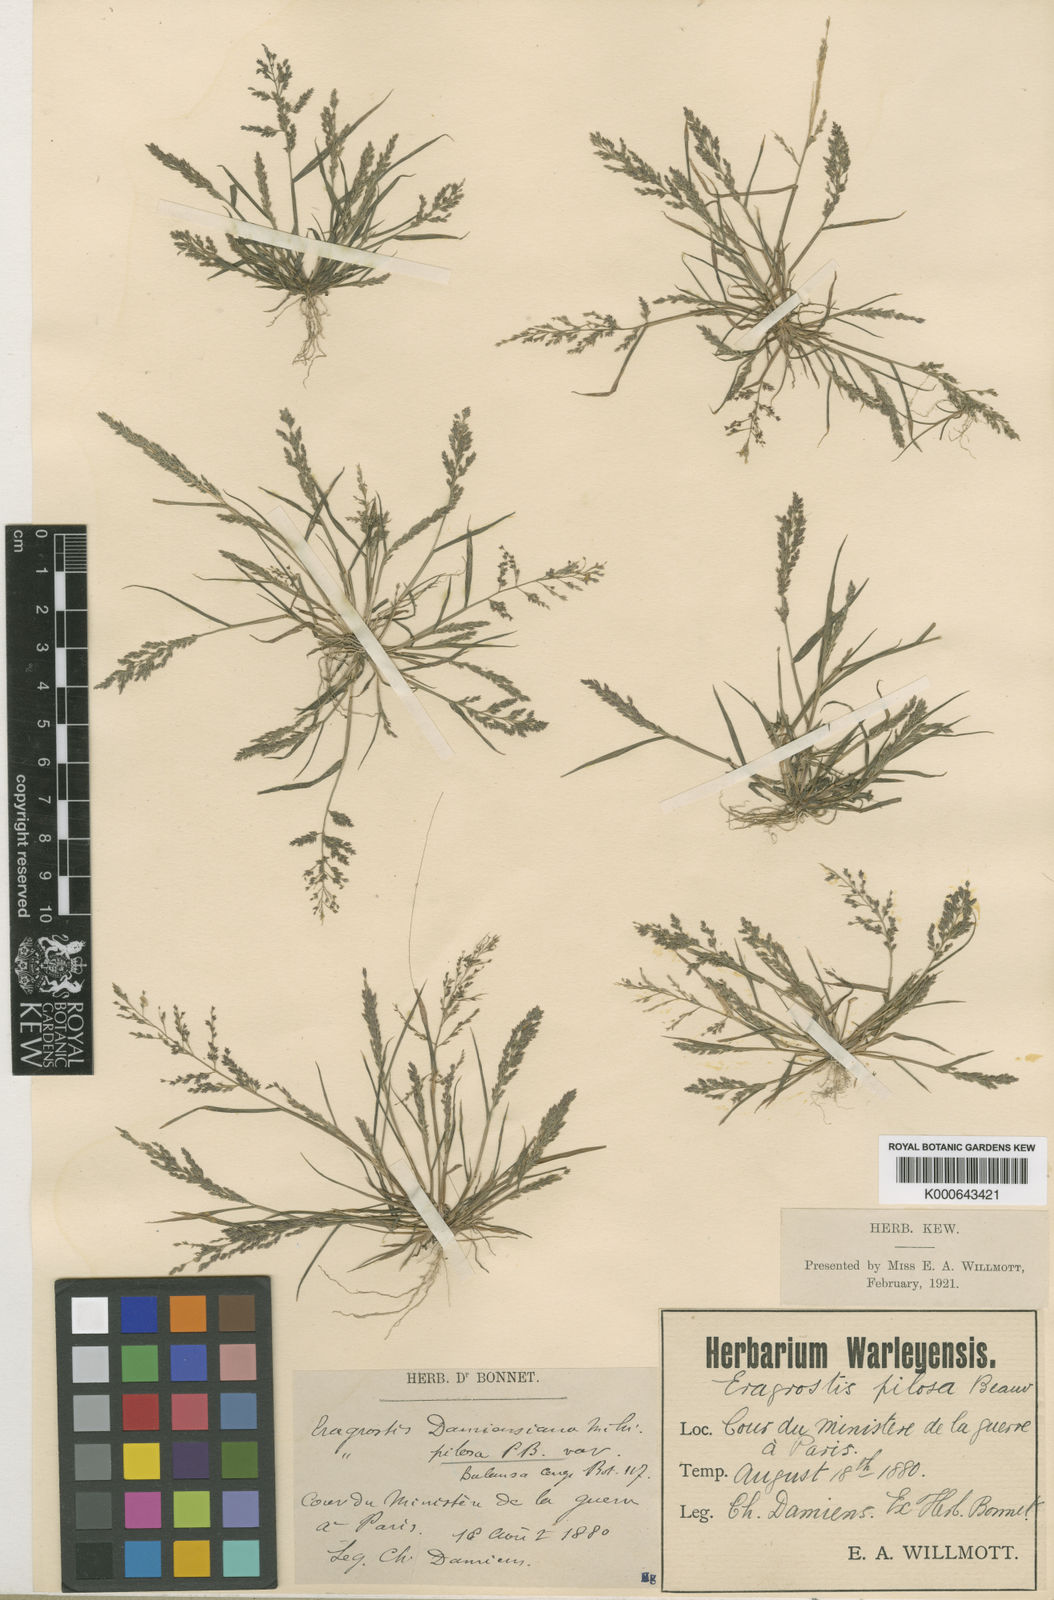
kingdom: Plantae
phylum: Tracheophyta
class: Liliopsida
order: Poales
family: Poaceae
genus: Eragrostis
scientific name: Eragrostis multicaulis
